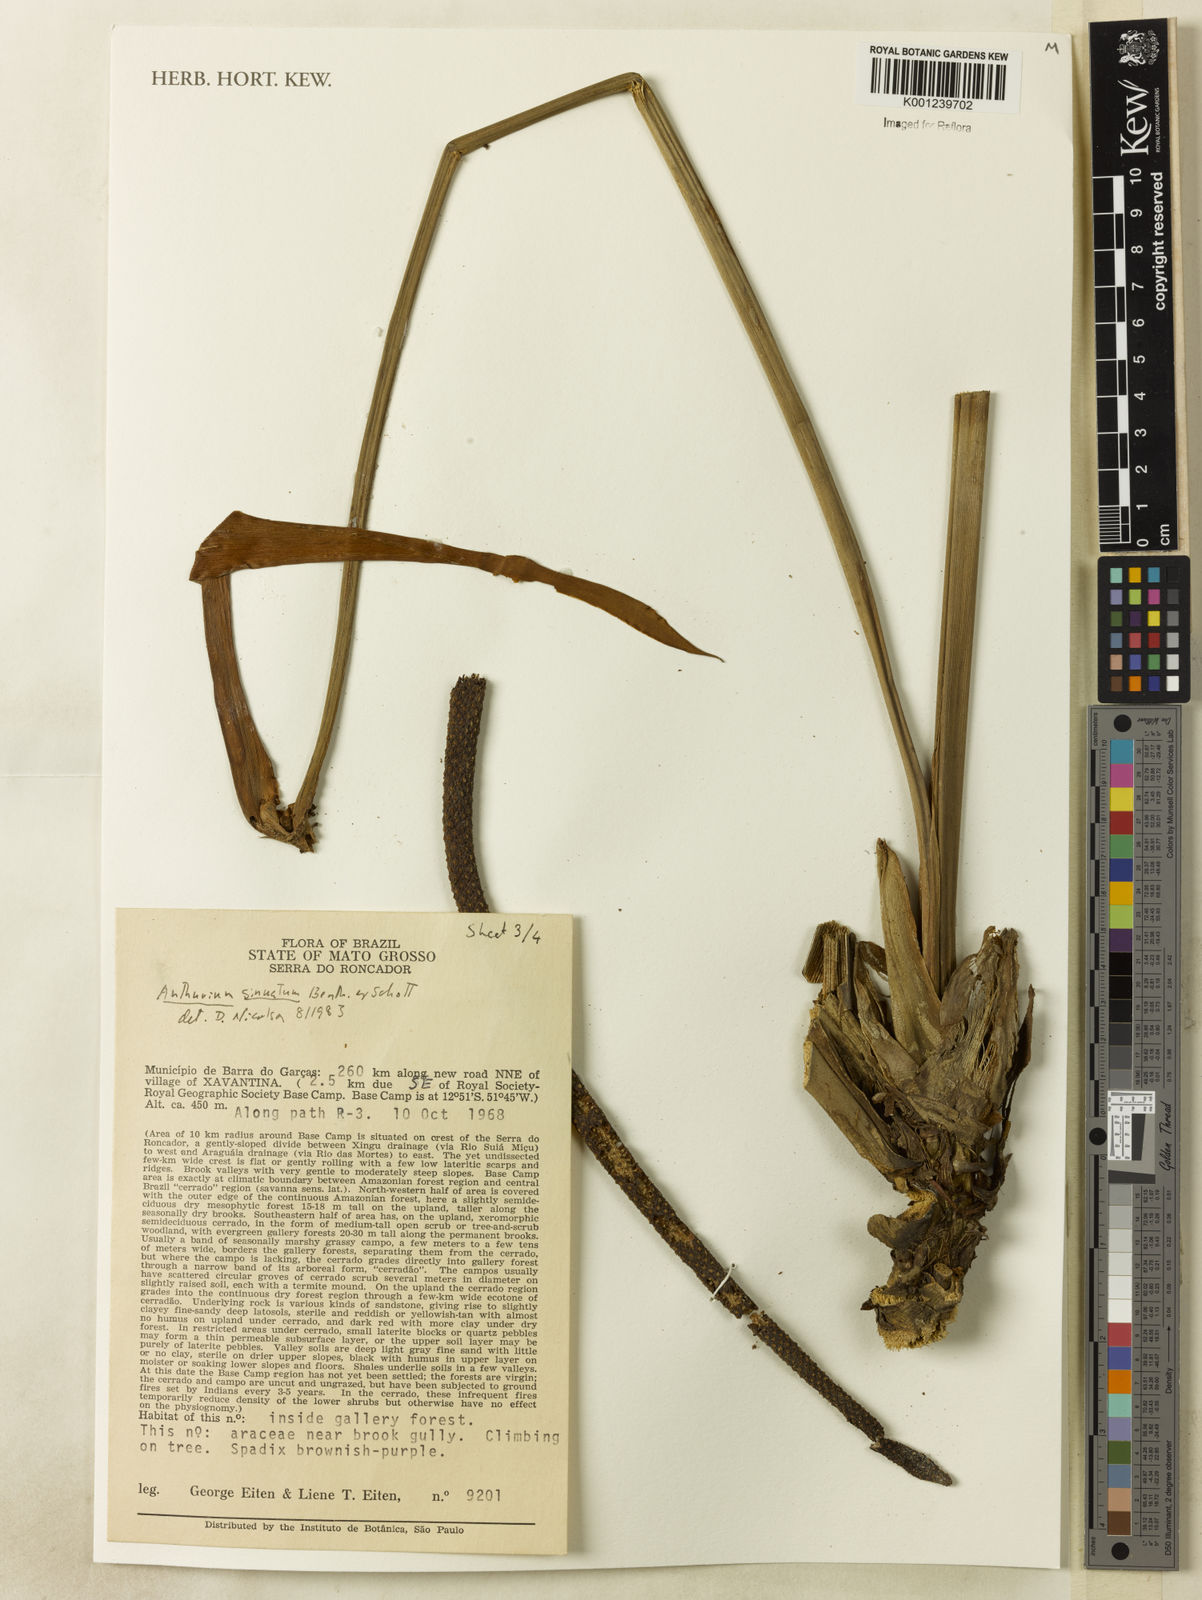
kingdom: Plantae
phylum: Tracheophyta
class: Liliopsida
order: Alismatales
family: Araceae
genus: Anthurium
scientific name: Anthurium sinuatum
